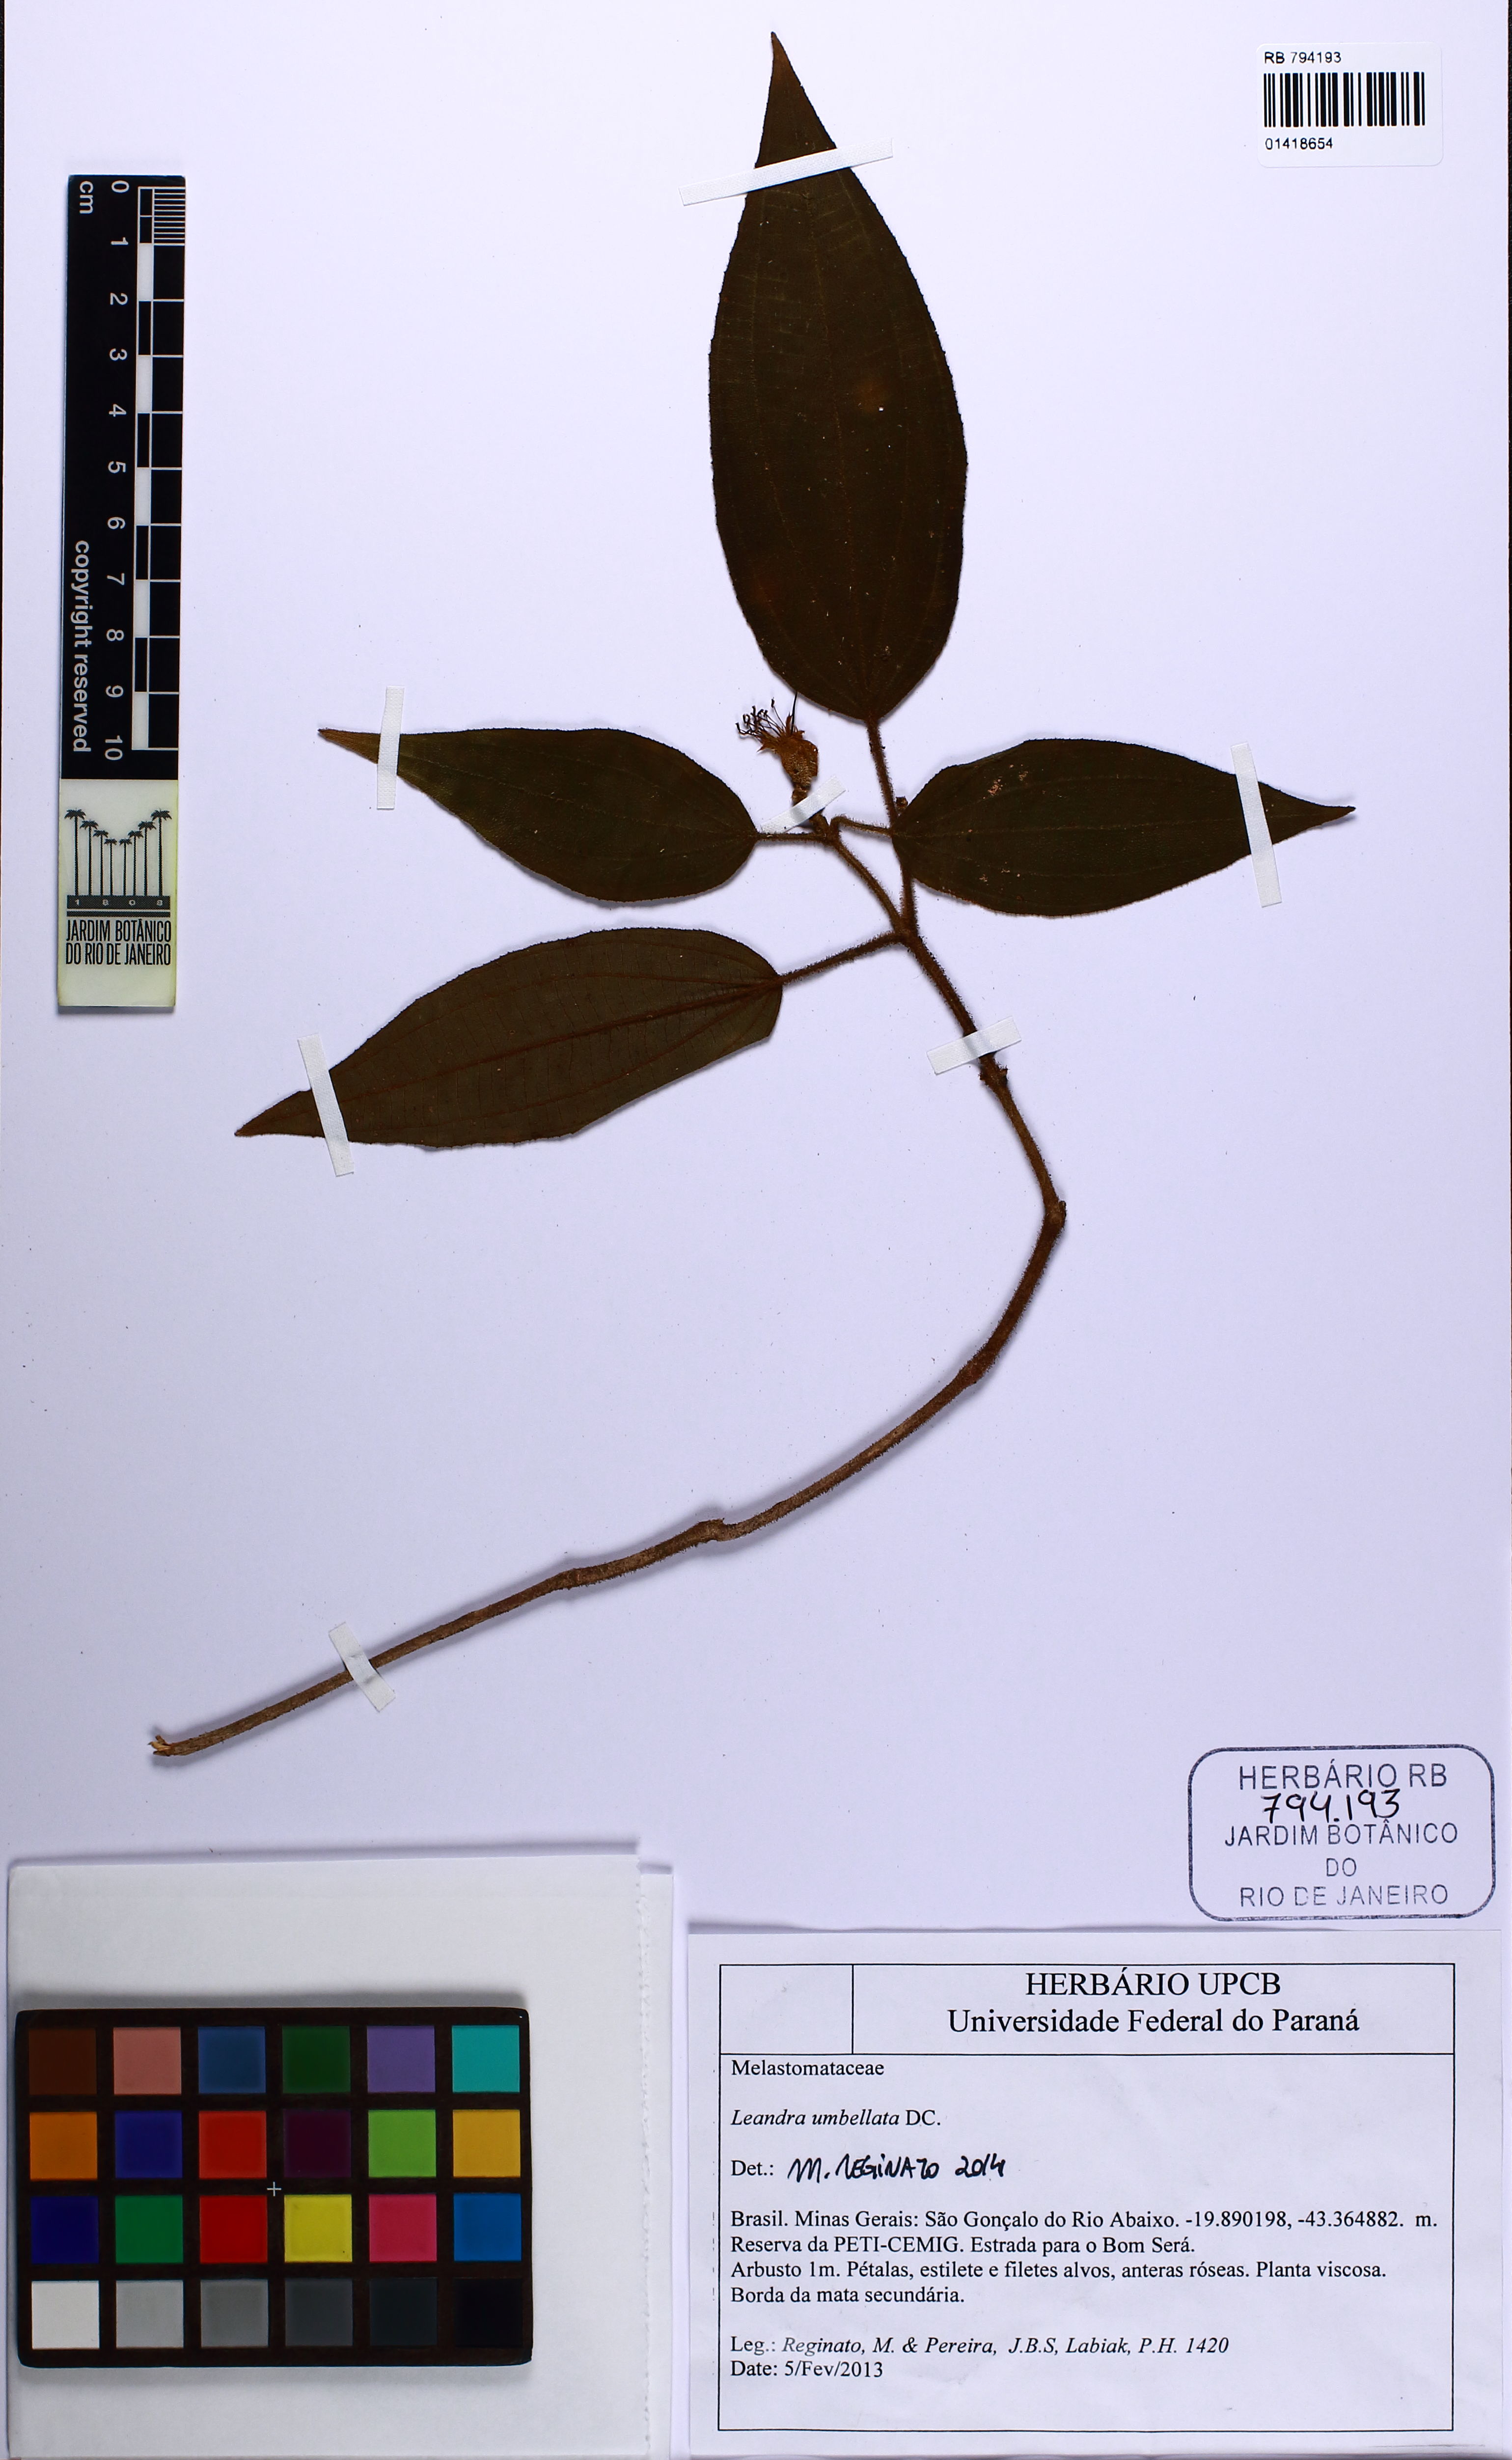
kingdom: Plantae
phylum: Tracheophyta
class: Magnoliopsida
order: Myrtales
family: Melastomataceae
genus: Miconia
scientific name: Miconia leaumbellata
